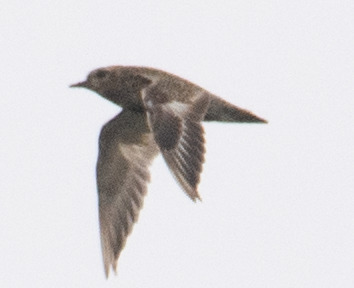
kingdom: Animalia
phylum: Chordata
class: Aves
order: Charadriiformes
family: Charadriidae
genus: Pluvialis
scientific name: Pluvialis apricaria
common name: Hjejle
